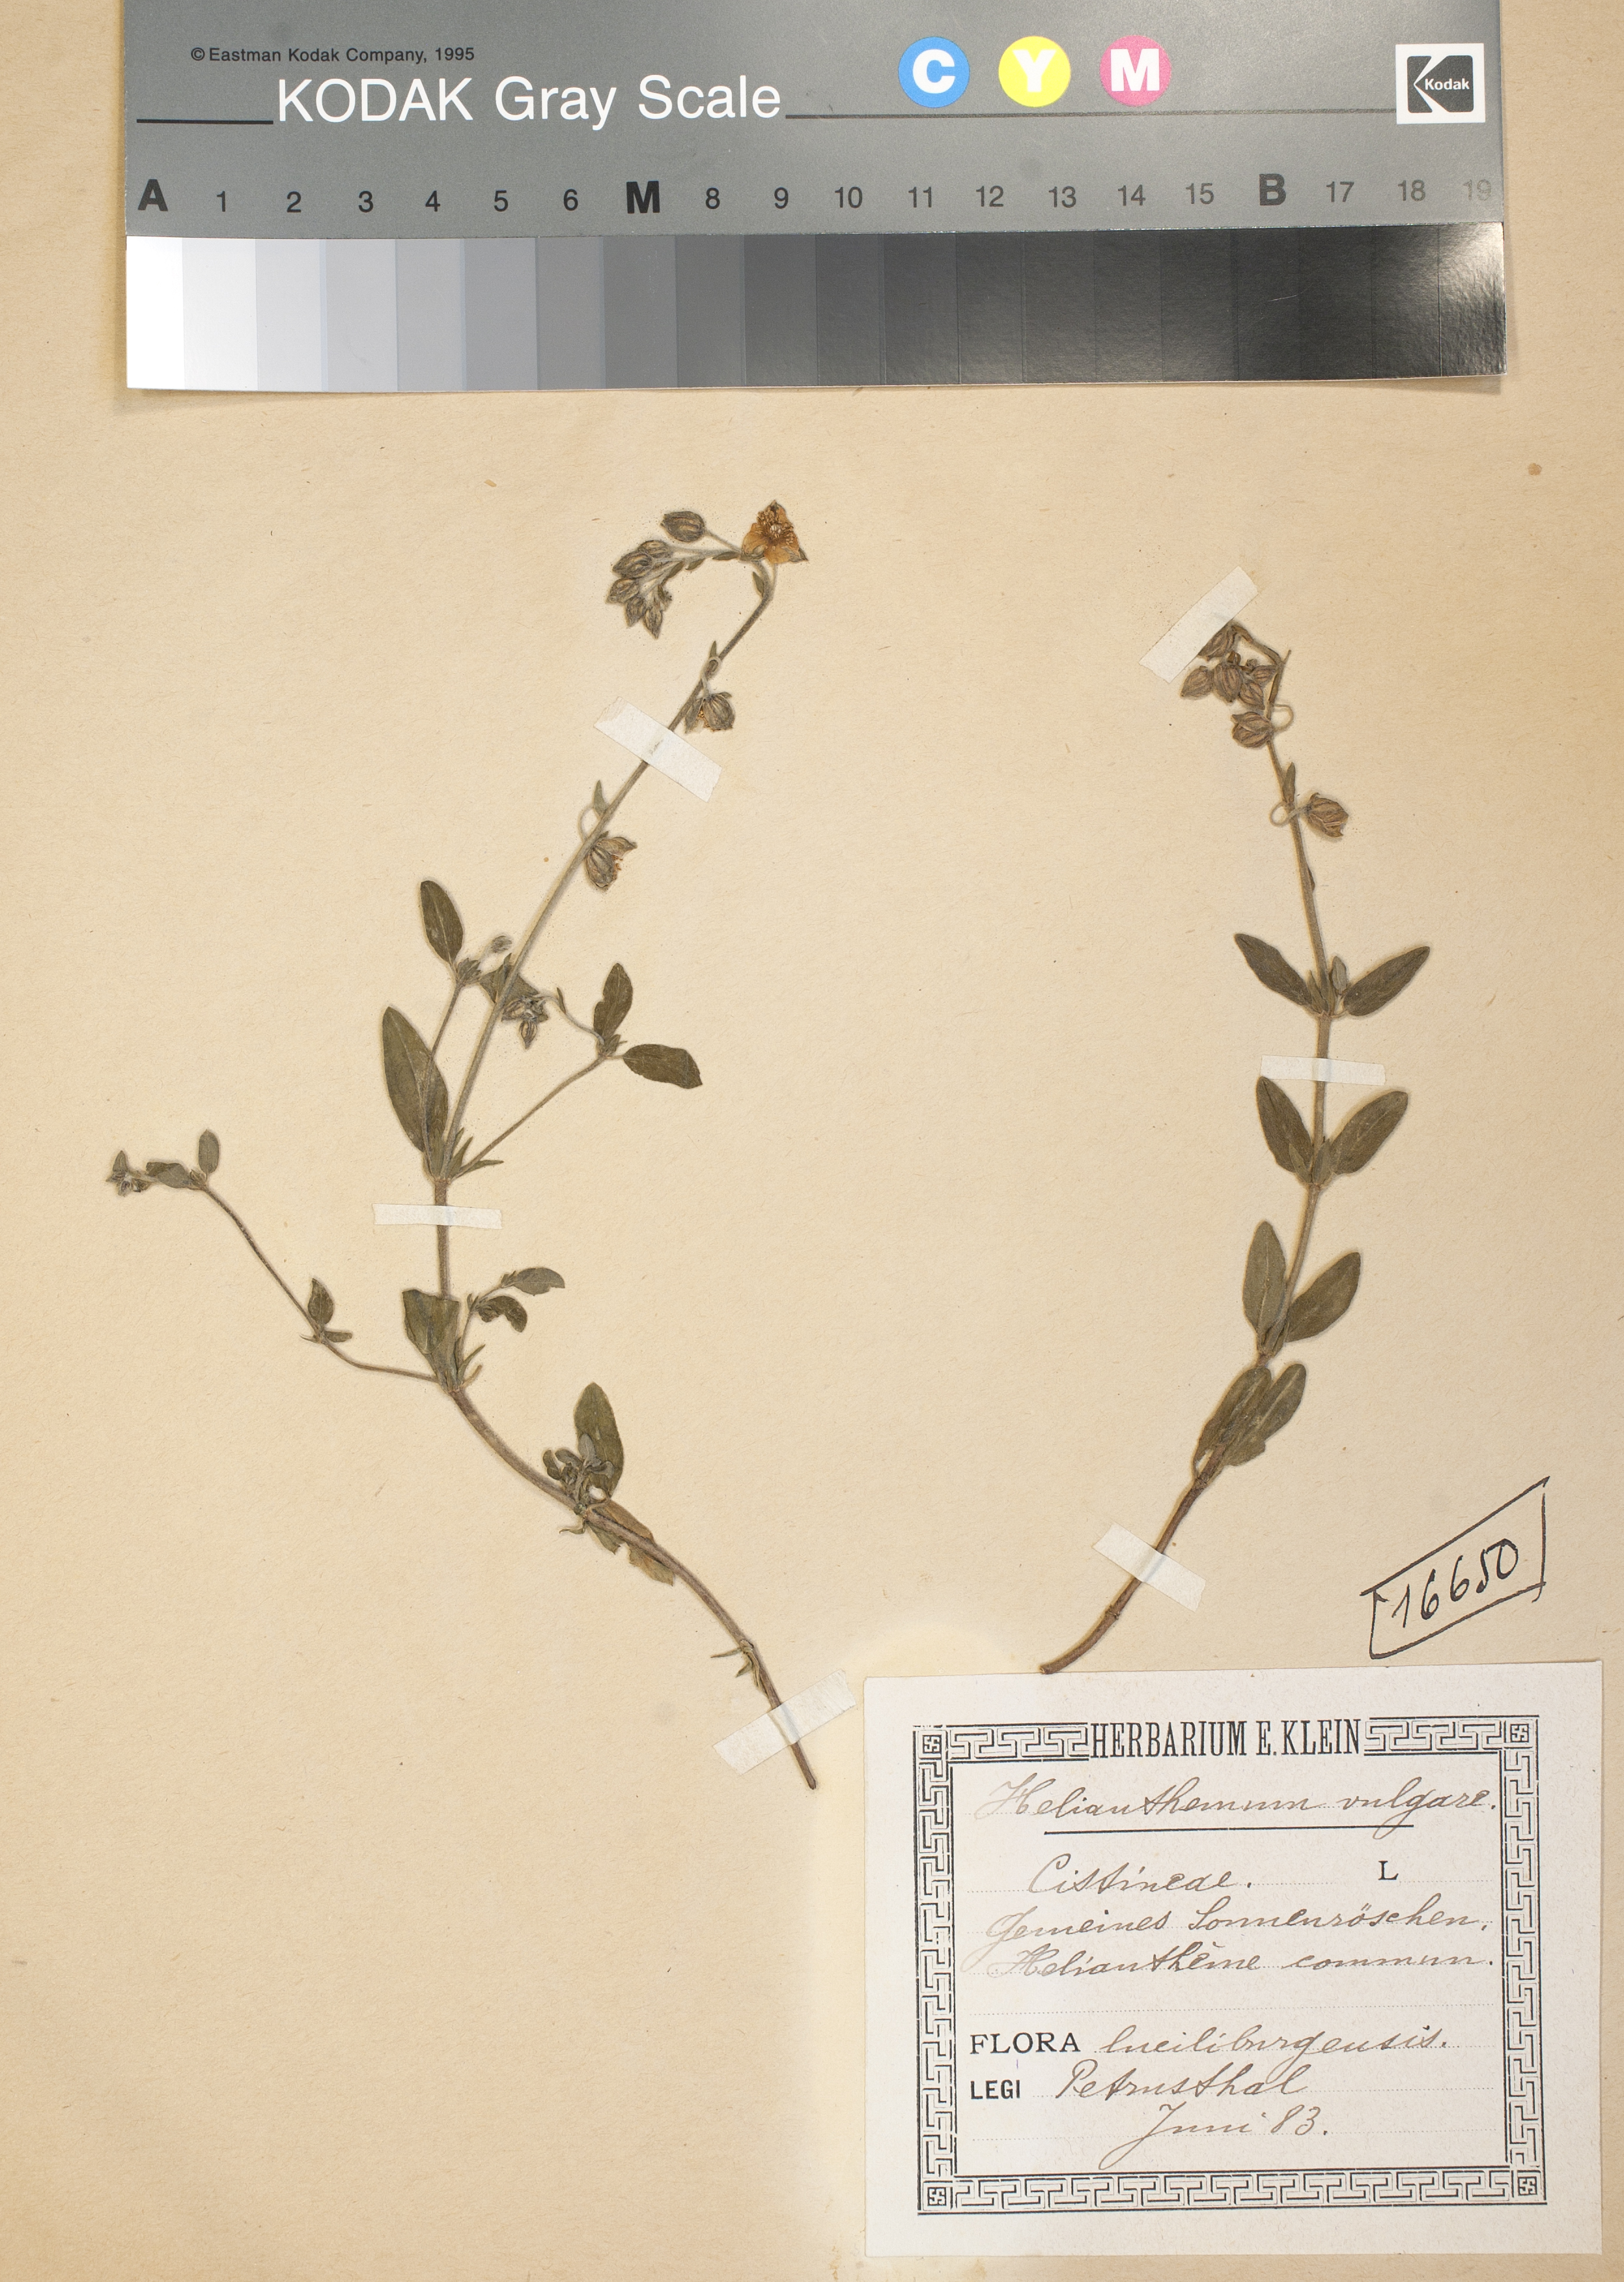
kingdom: Plantae
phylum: Tracheophyta
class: Magnoliopsida
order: Malvales
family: Cistaceae
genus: Helianthemum
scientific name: Helianthemum nummularium
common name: Common rock-rose
